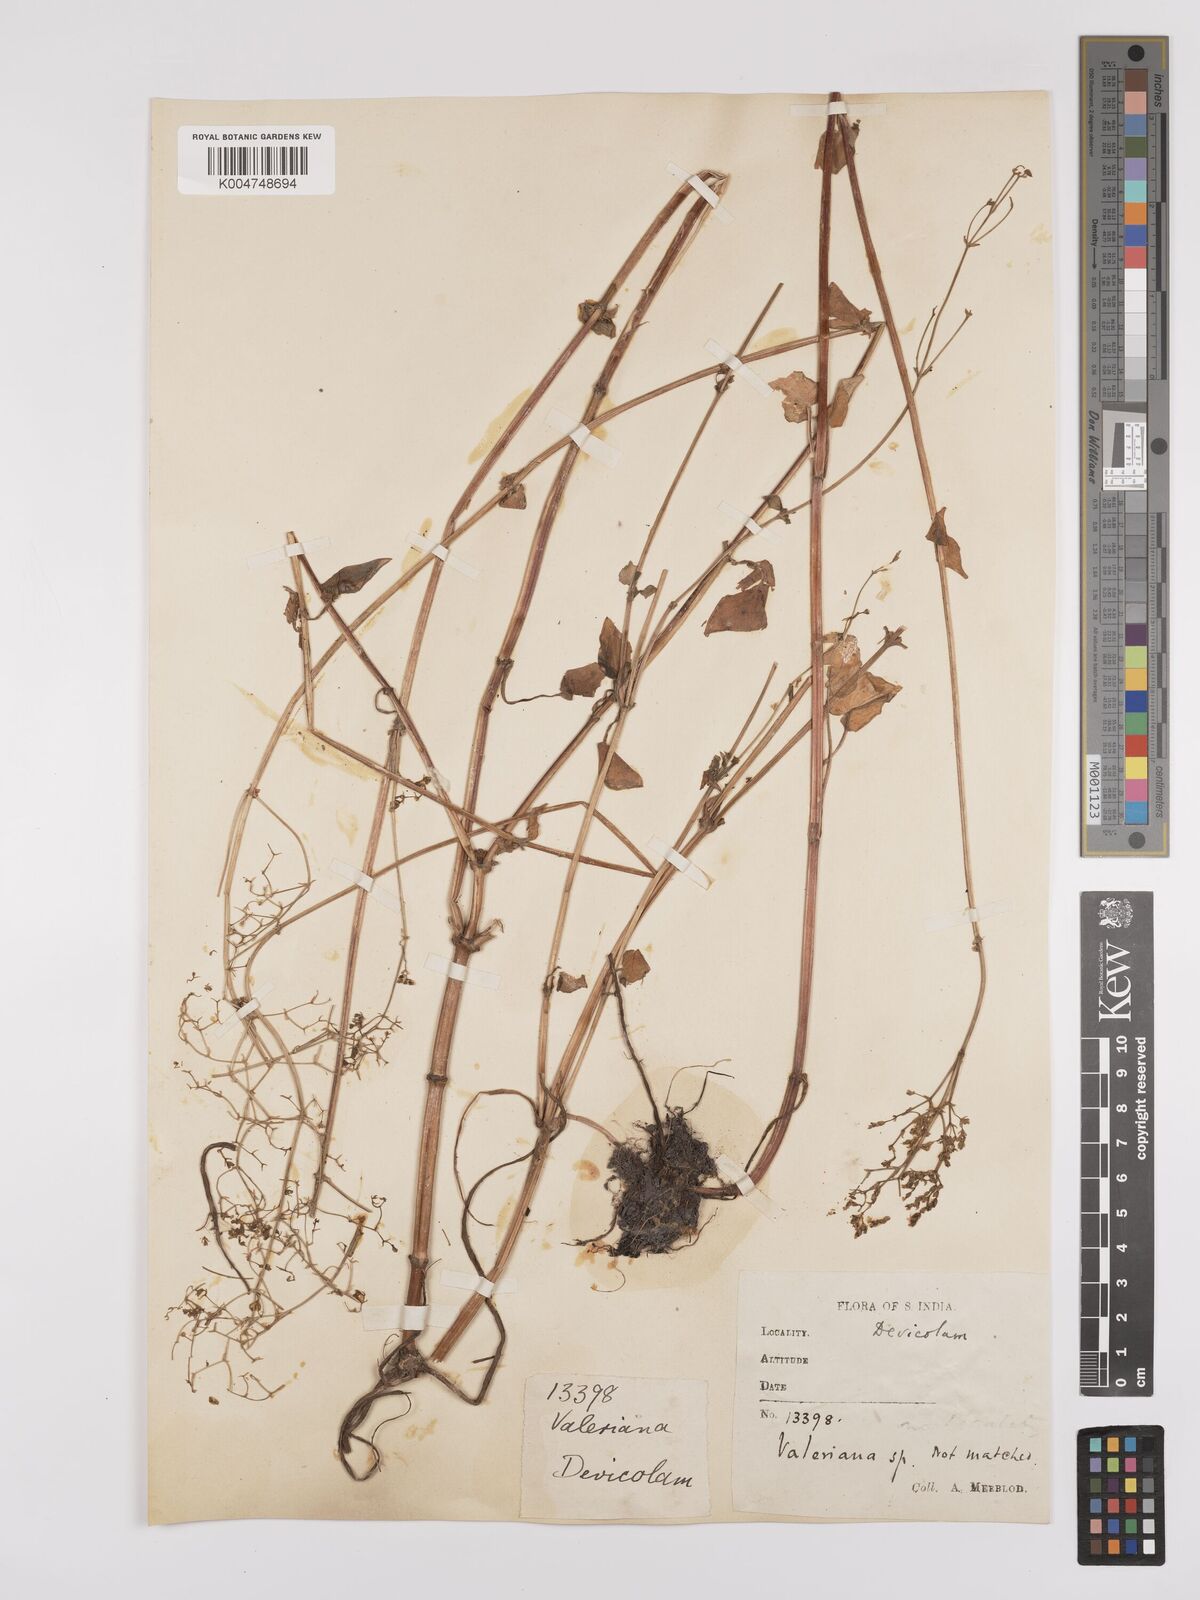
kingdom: Plantae
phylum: Tracheophyta
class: Magnoliopsida
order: Dipsacales
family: Caprifoliaceae
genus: Valeriana
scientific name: Valeriana
